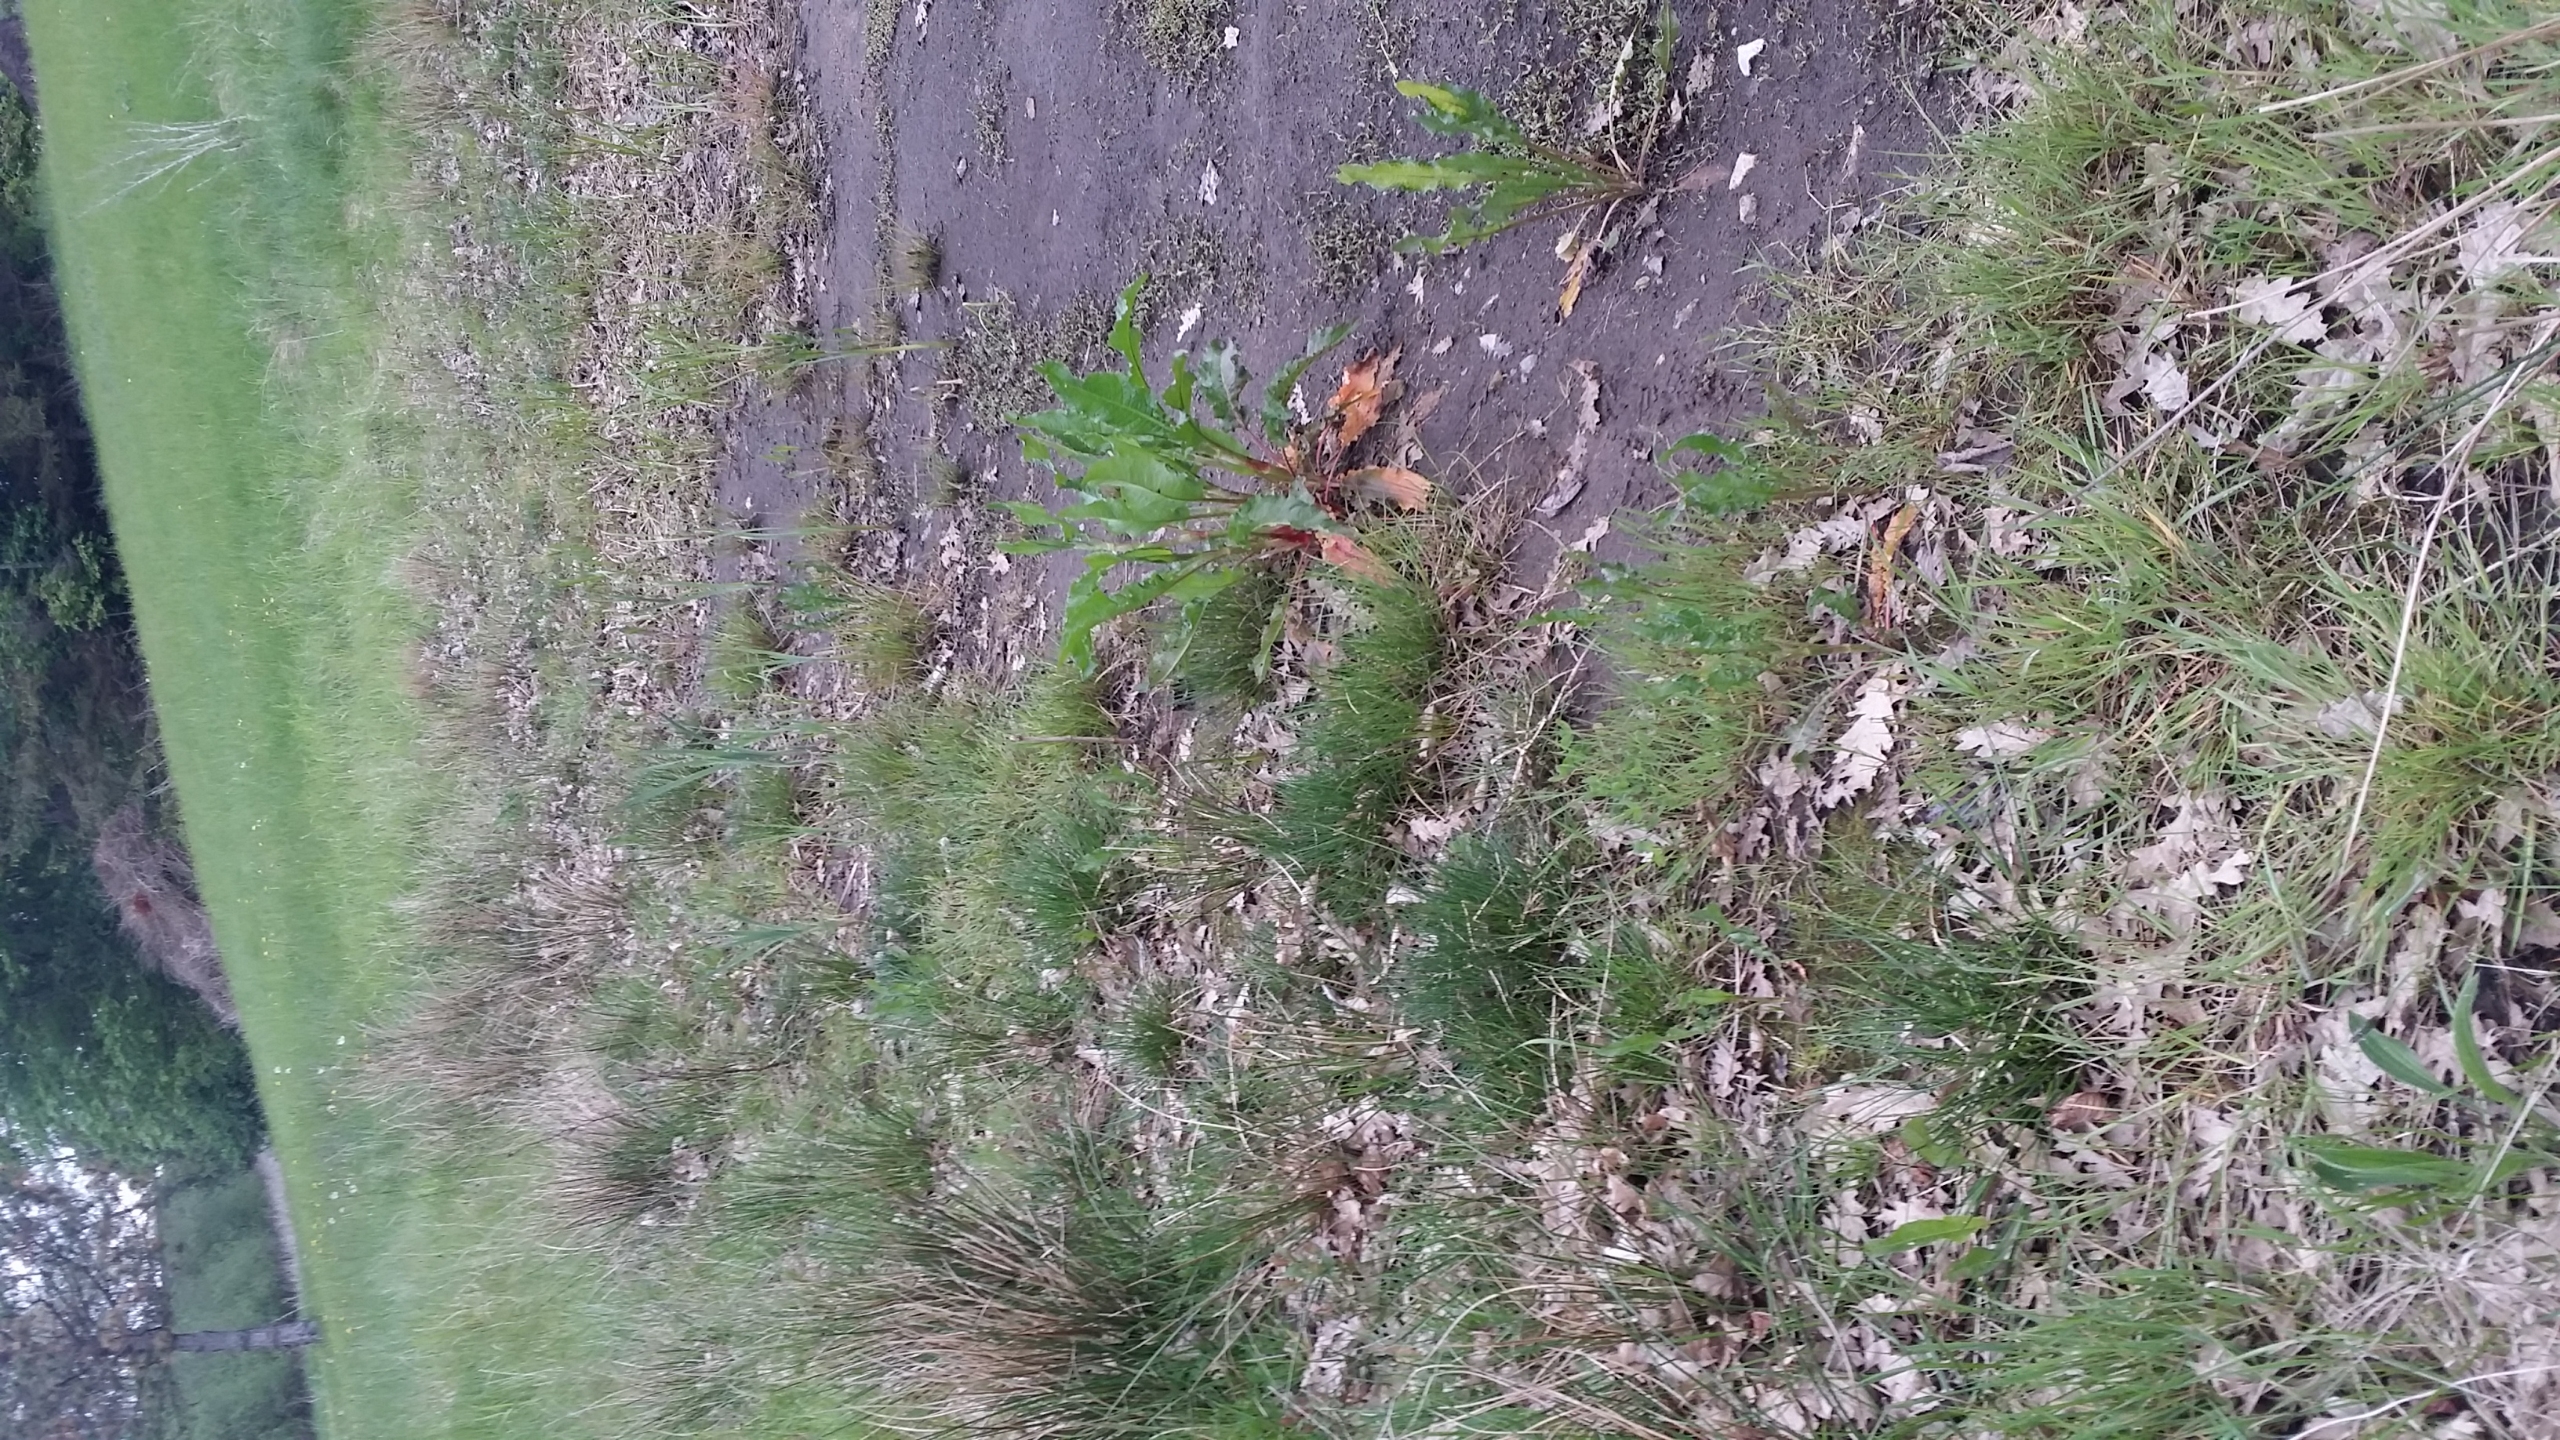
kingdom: Plantae
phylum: Tracheophyta
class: Liliopsida
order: Poales
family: Juncaceae
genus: Juncus
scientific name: Juncus articulatus
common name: Glanskapslet siv
